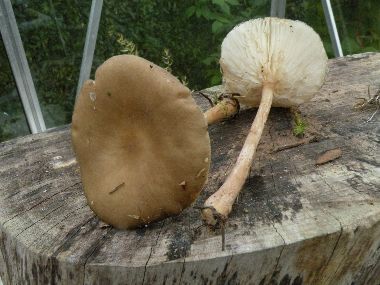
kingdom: Fungi
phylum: Basidiomycota
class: Agaricomycetes
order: Agaricales
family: Tricholomataceae
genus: Melanoleuca
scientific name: Melanoleuca
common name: munkehat
